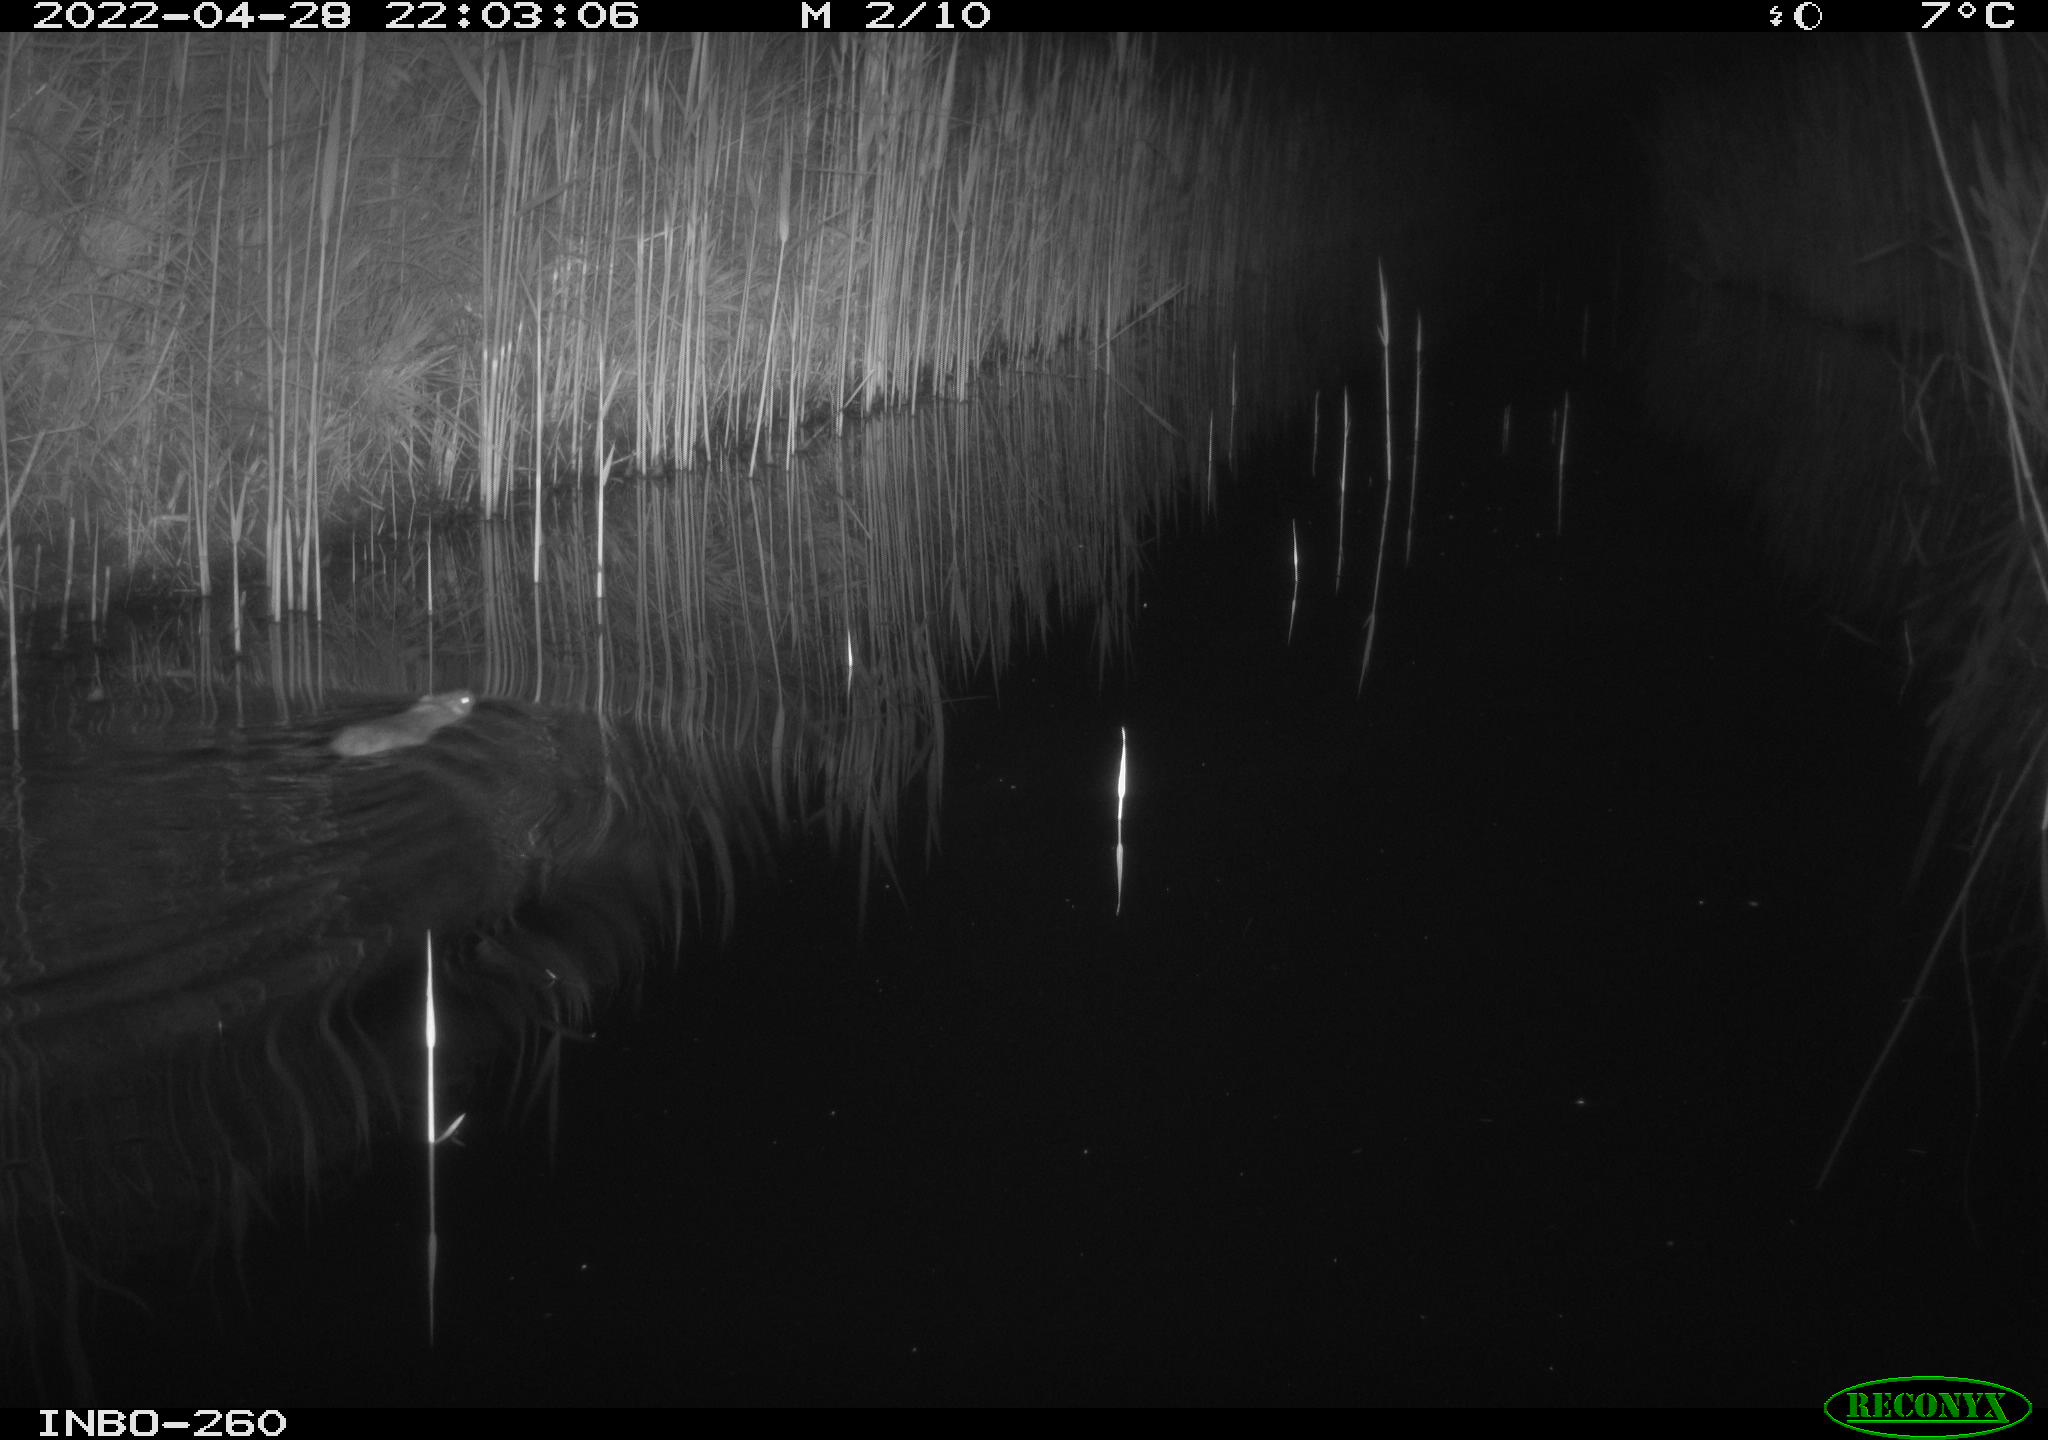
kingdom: Animalia
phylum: Chordata
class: Mammalia
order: Rodentia
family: Cricetidae
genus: Ondatra
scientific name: Ondatra zibethicus
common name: Muskrat
